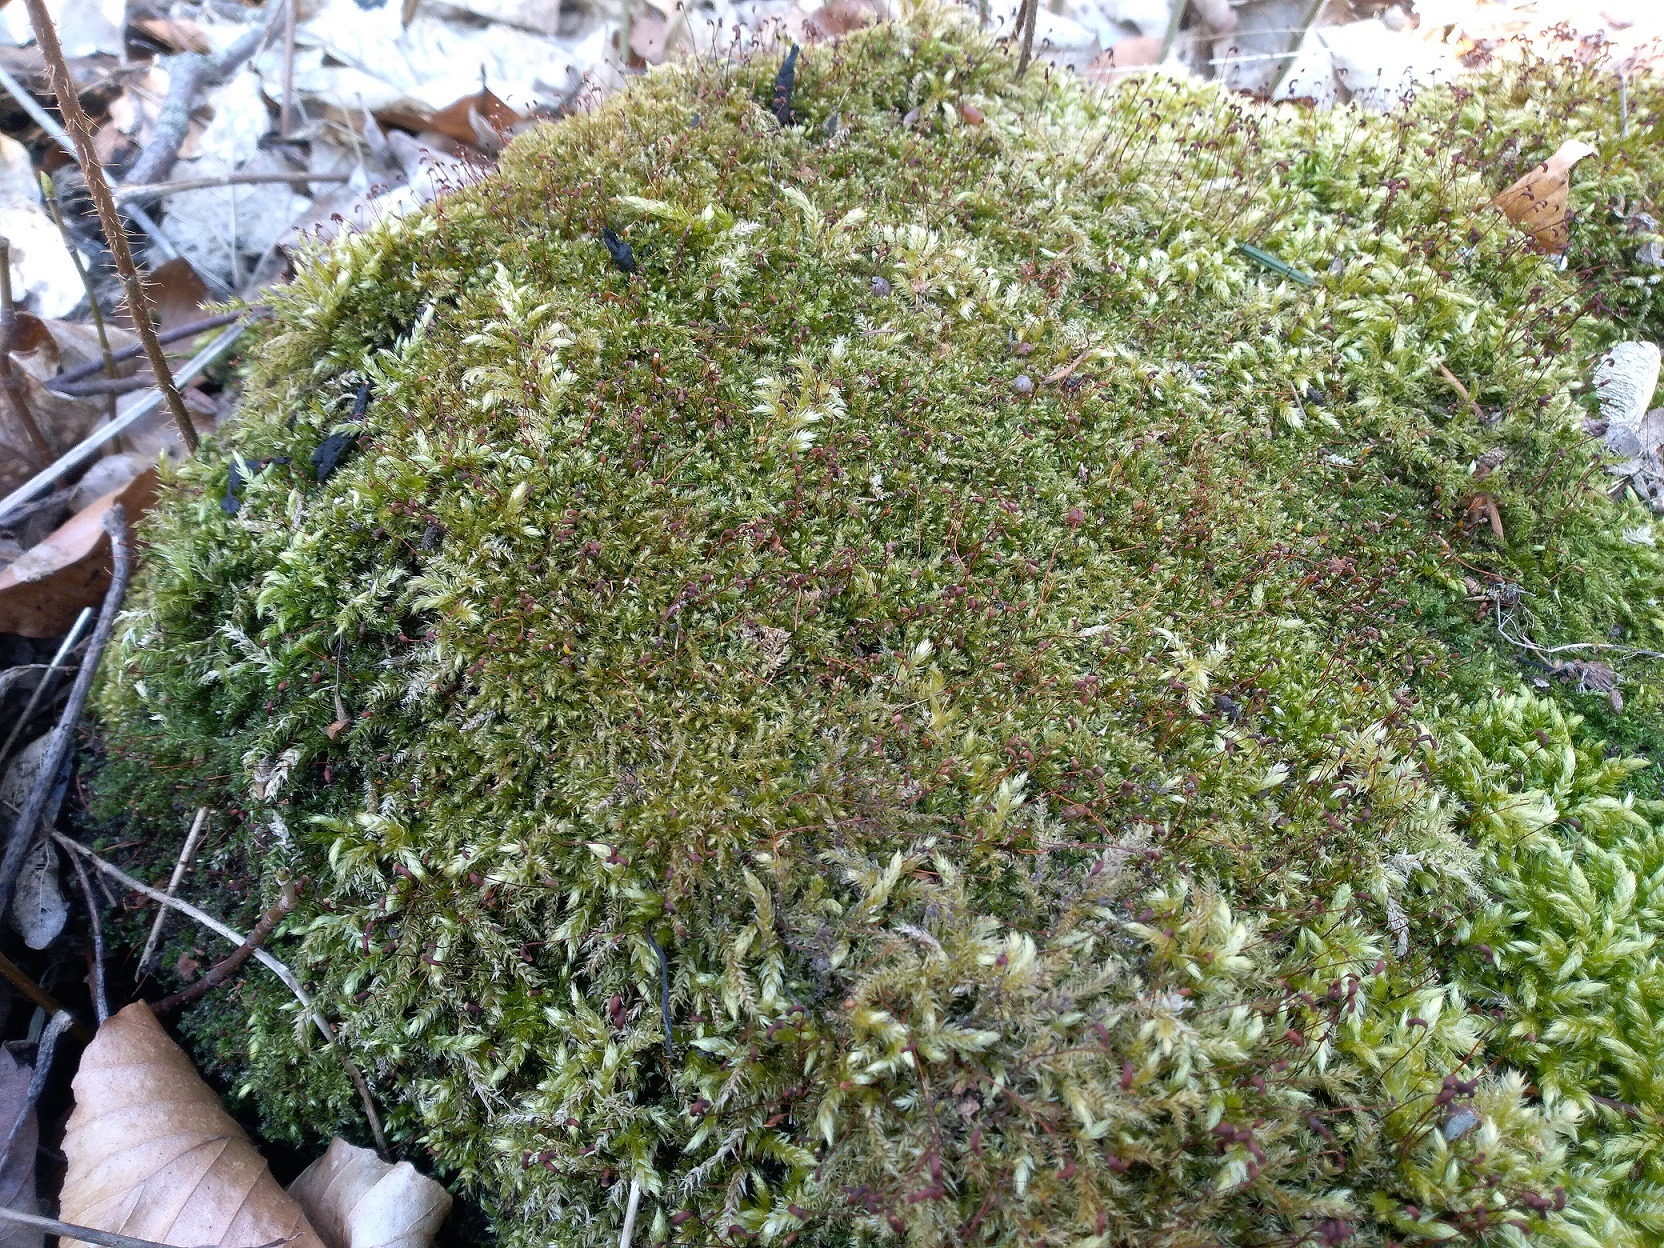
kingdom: Plantae
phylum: Bryophyta
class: Bryopsida
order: Hypnales
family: Brachytheciaceae
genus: Rhynchostegium
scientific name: Rhynchostegium confertum
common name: Skov-langnæb
